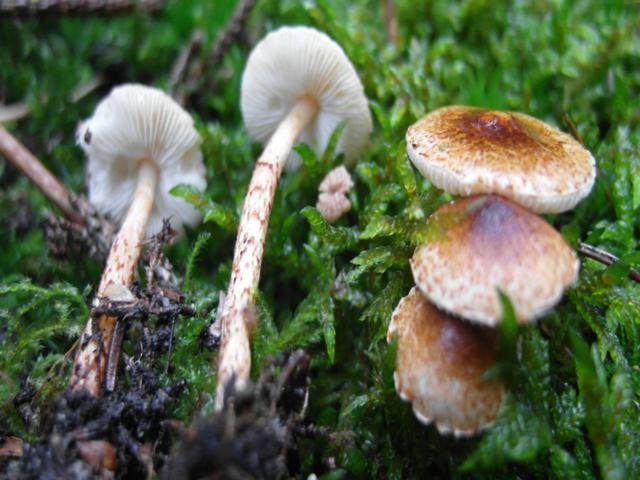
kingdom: Fungi
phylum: Basidiomycota
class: Agaricomycetes
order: Agaricales
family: Agaricaceae
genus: Lepiota
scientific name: Lepiota castanea
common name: kastaniebrun parasolhat
